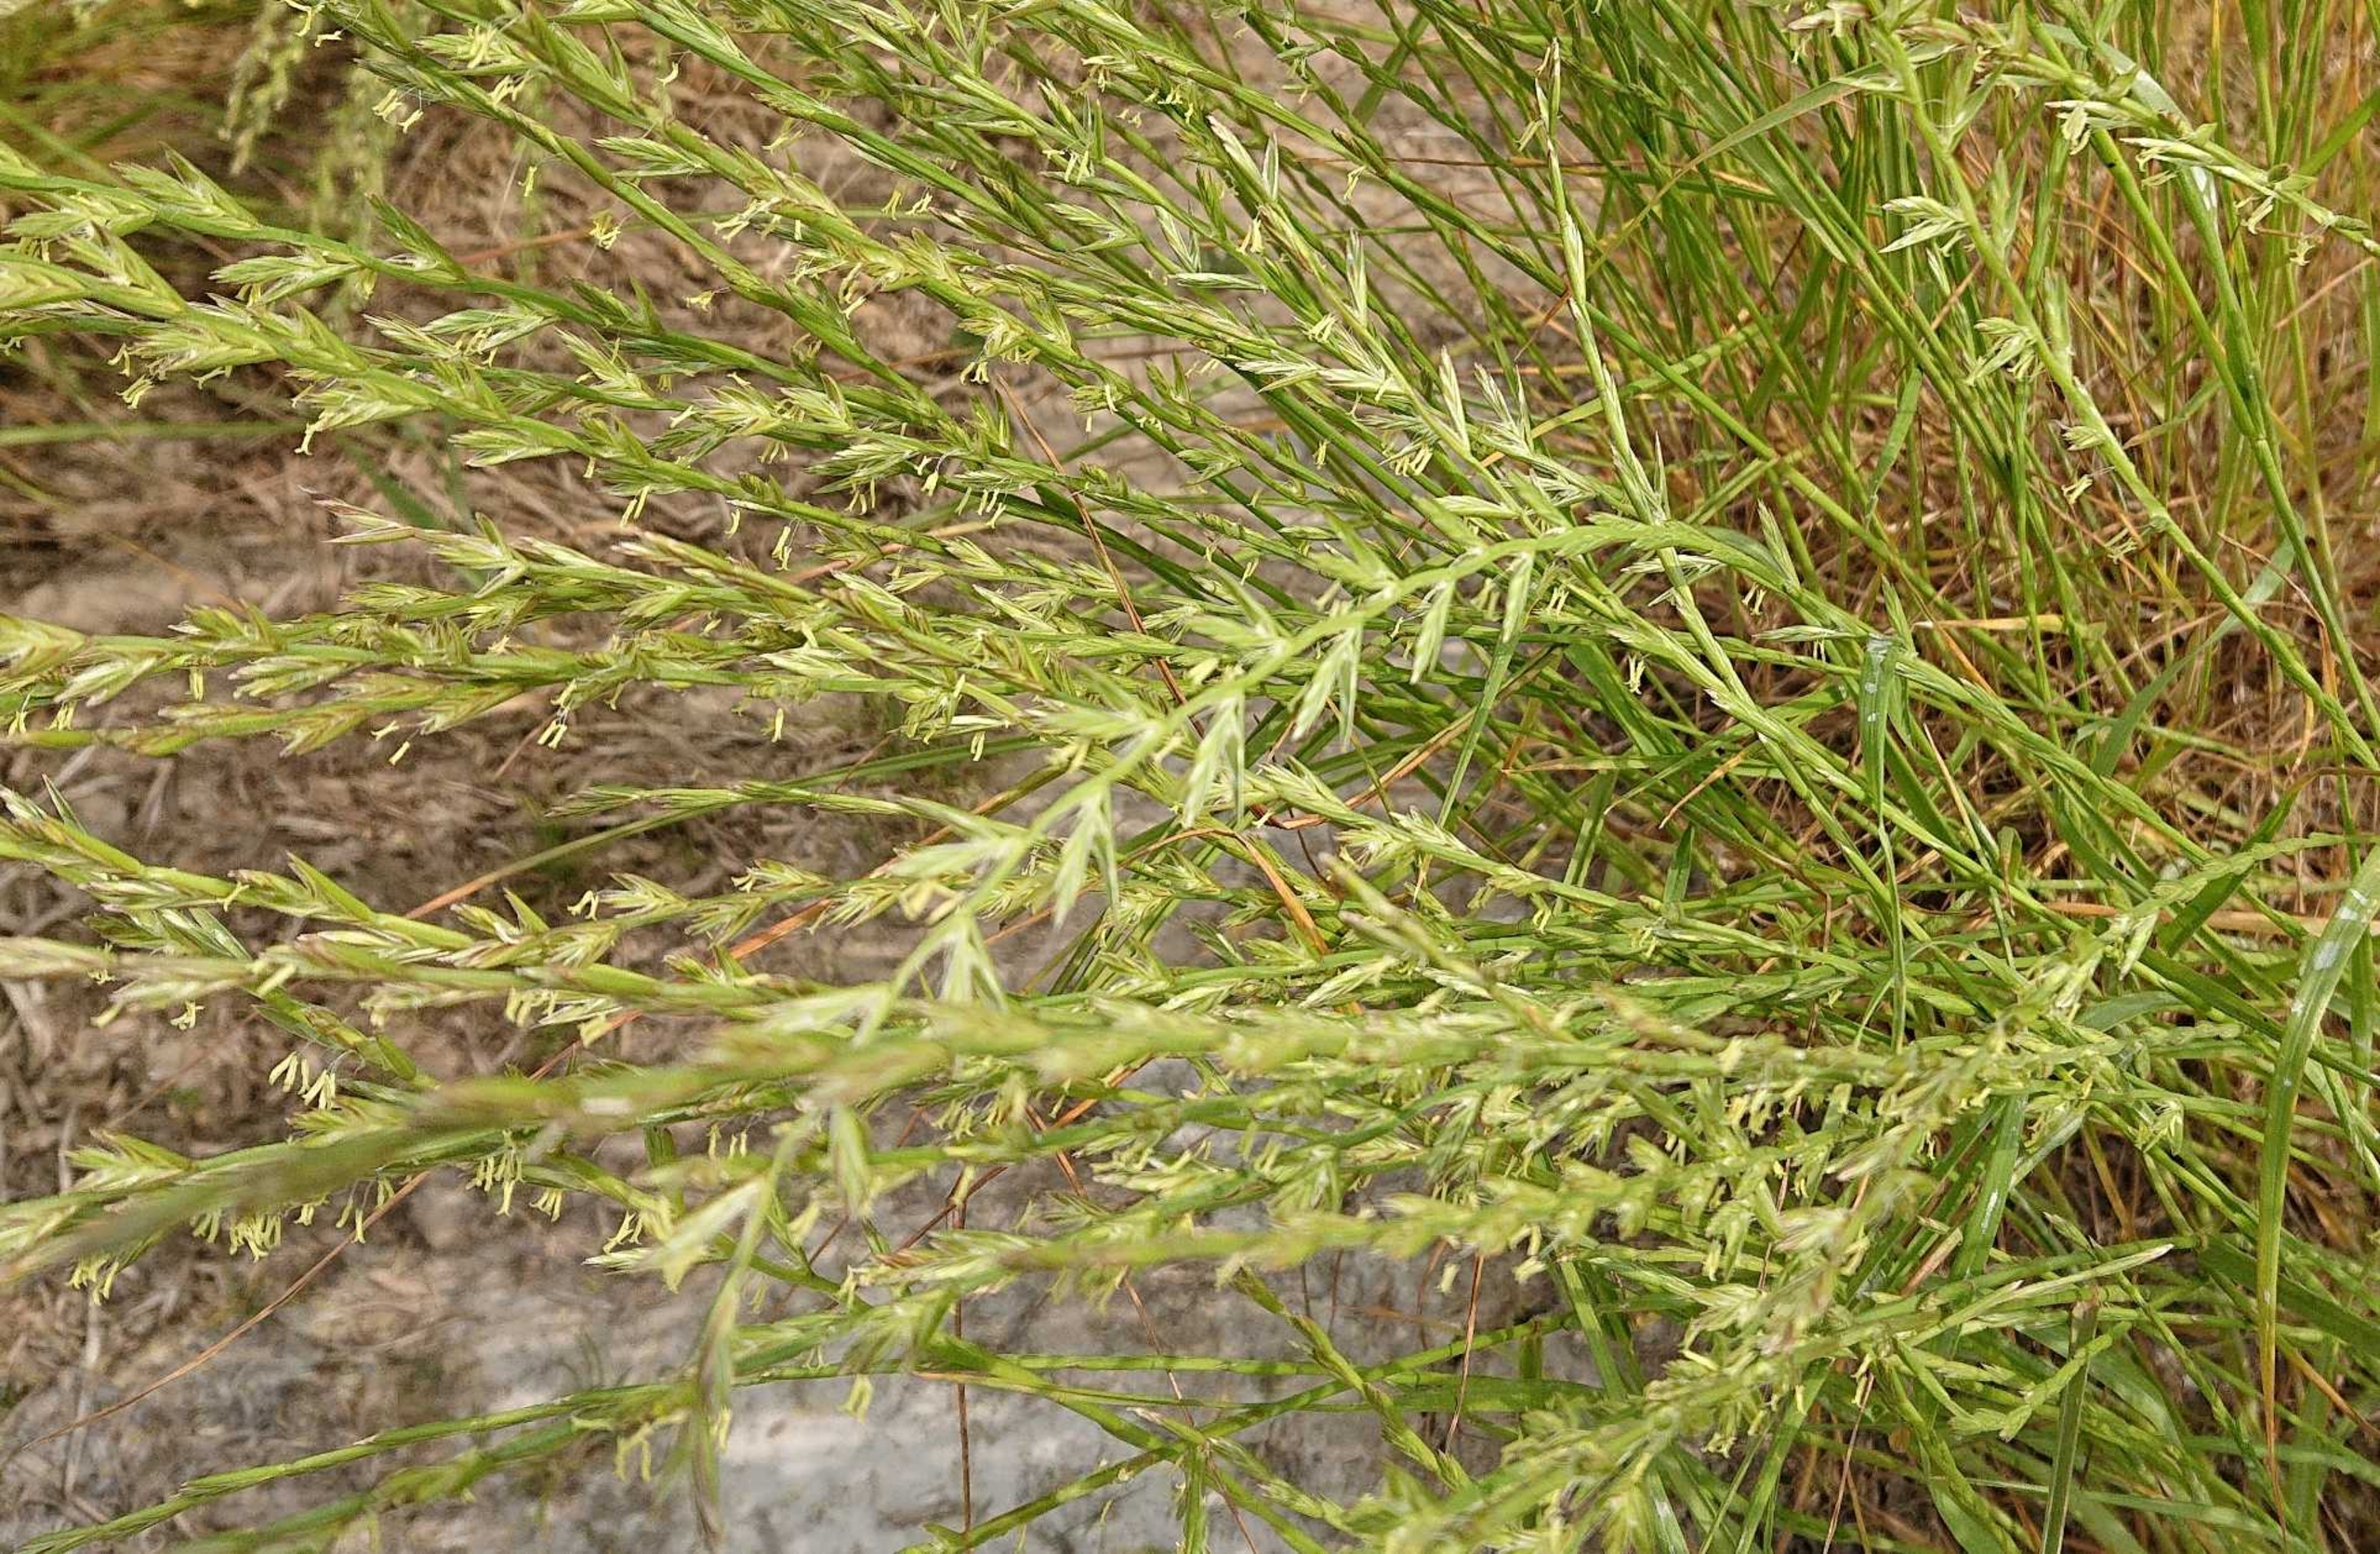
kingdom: Plantae
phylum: Tracheophyta
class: Liliopsida
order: Poales
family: Poaceae
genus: Lolium
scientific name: Lolium perenne
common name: Almindelig rajgræs
